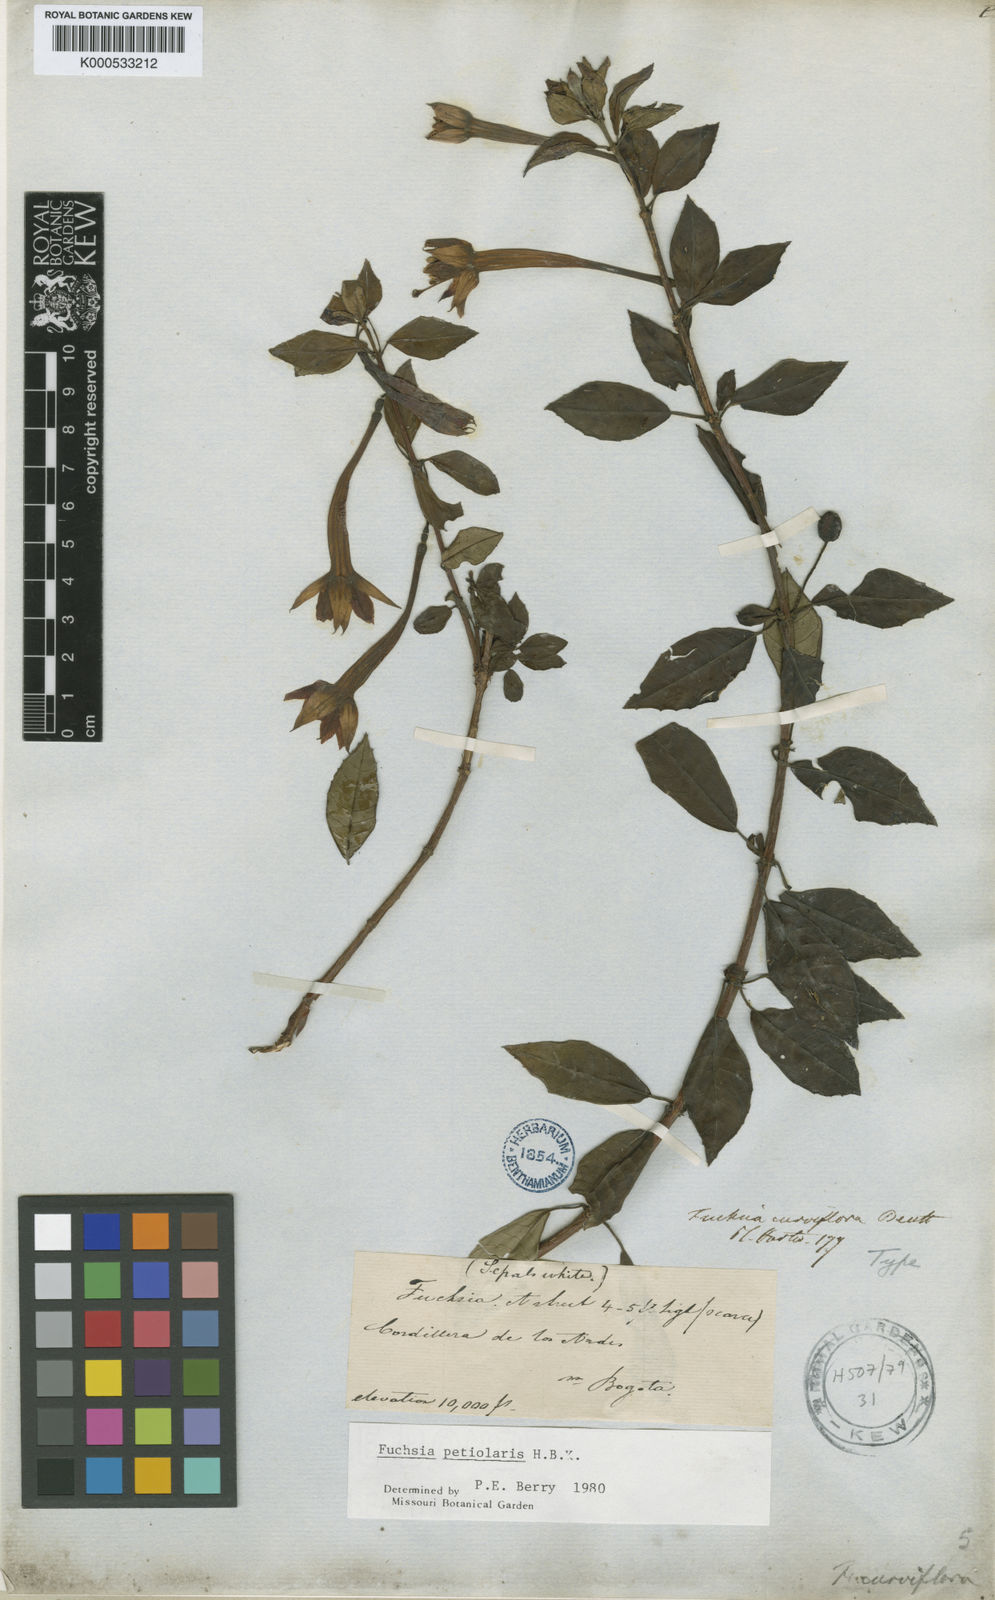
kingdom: Plantae
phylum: Tracheophyta
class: Magnoliopsida
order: Myrtales
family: Onagraceae
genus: Fuchsia
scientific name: Fuchsia petiolaris
